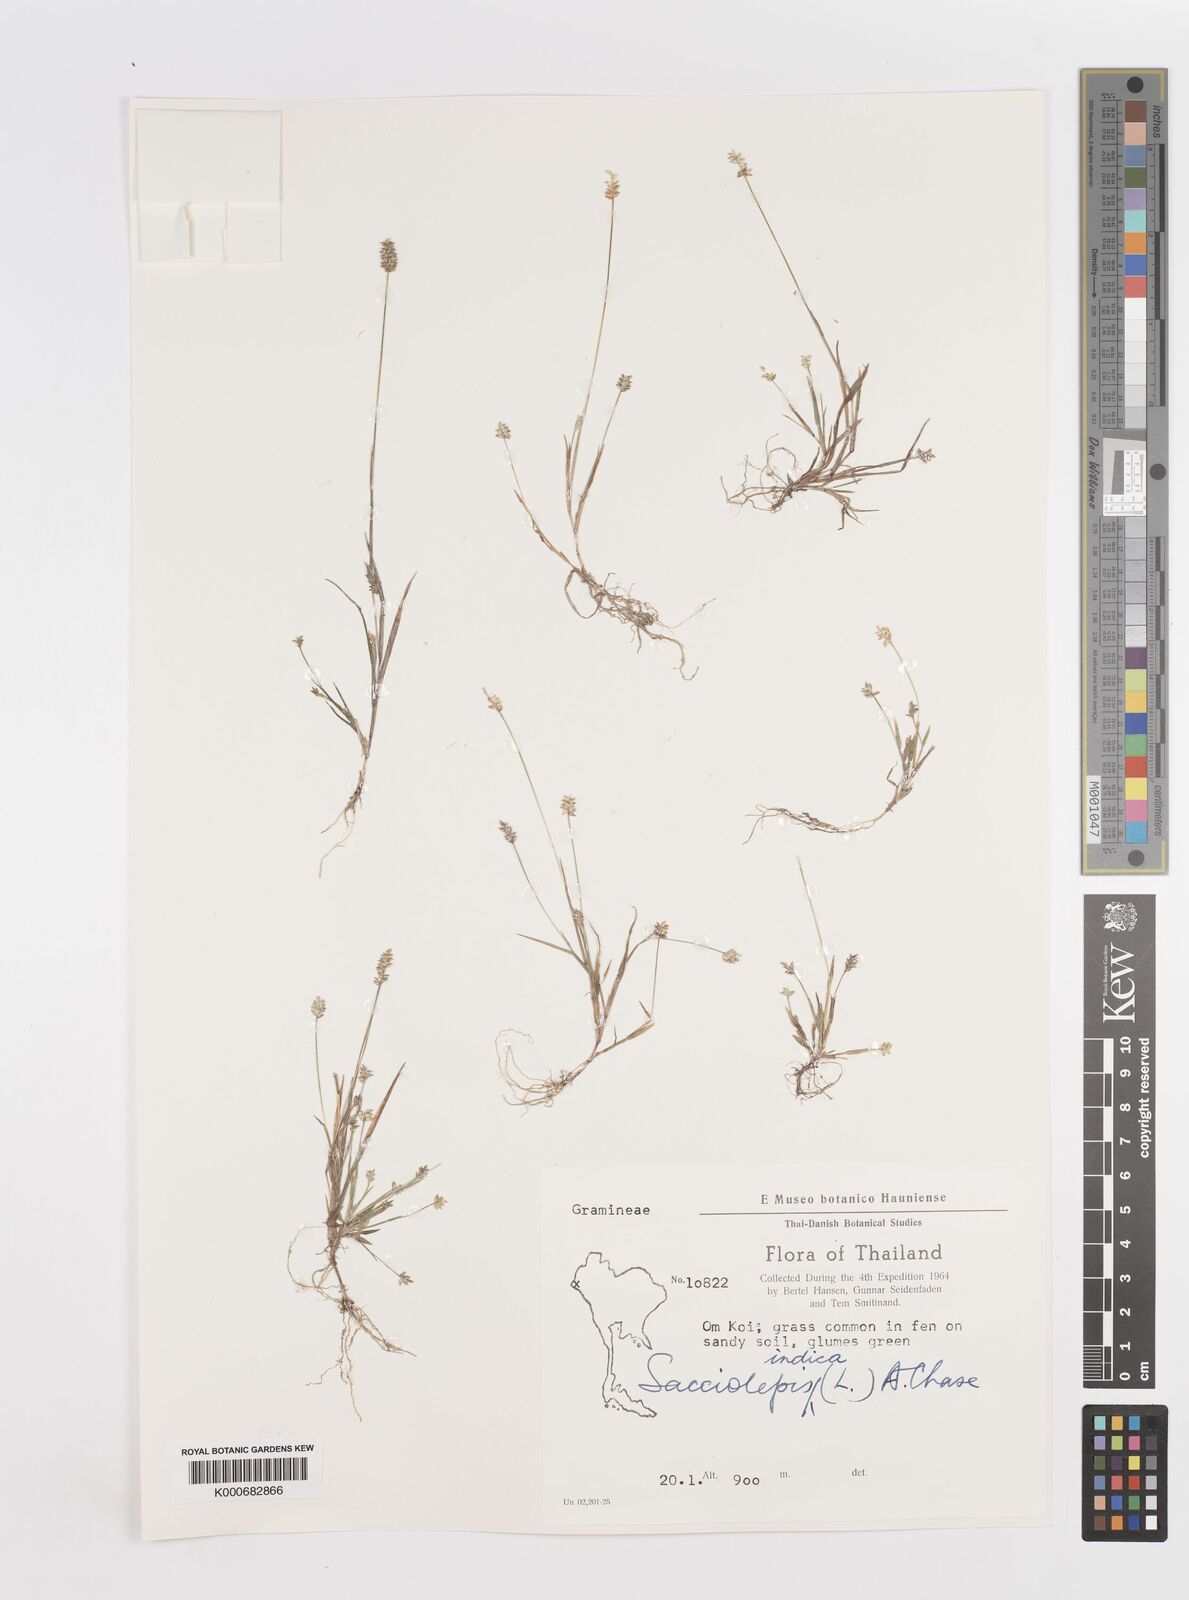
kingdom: Plantae
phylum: Tracheophyta
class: Liliopsida
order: Poales
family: Poaceae
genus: Sacciolepis
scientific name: Sacciolepis indica
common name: Glenwoodgrass
